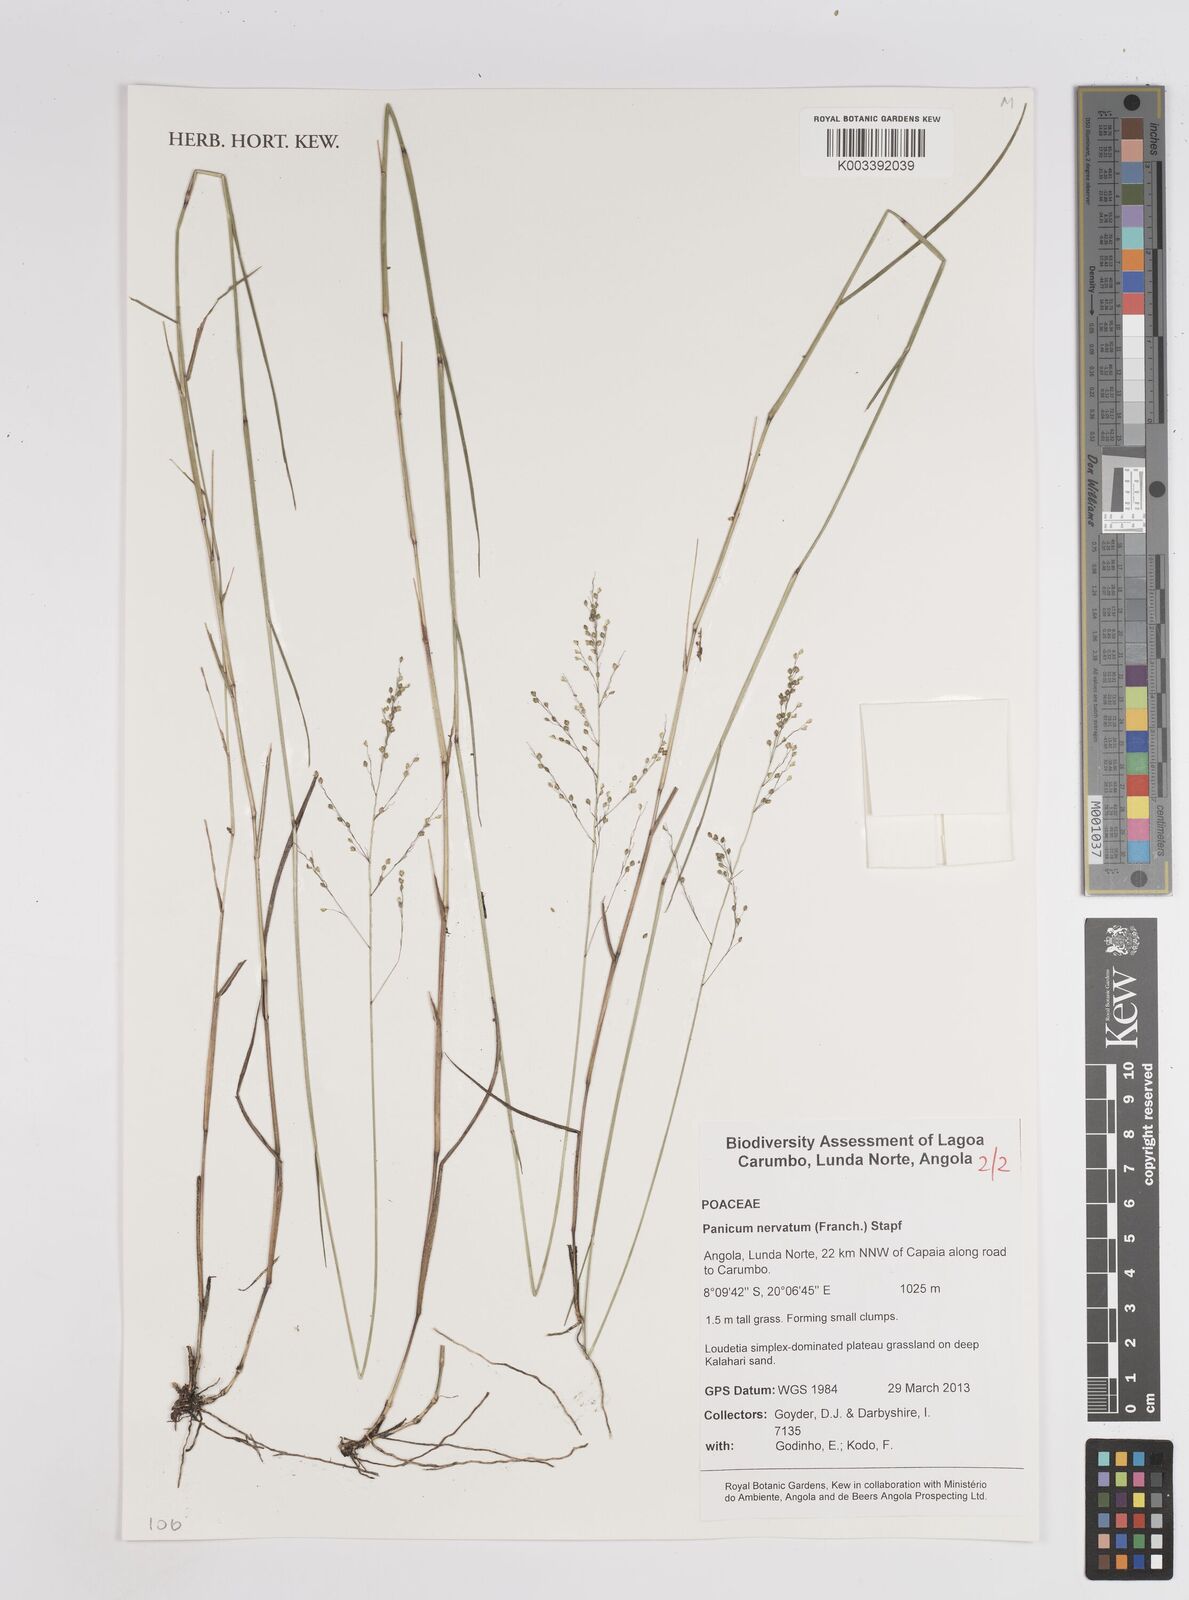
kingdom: Plantae
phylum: Tracheophyta
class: Liliopsida
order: Poales
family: Poaceae
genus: Trichanthecium
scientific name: Trichanthecium nervatum
